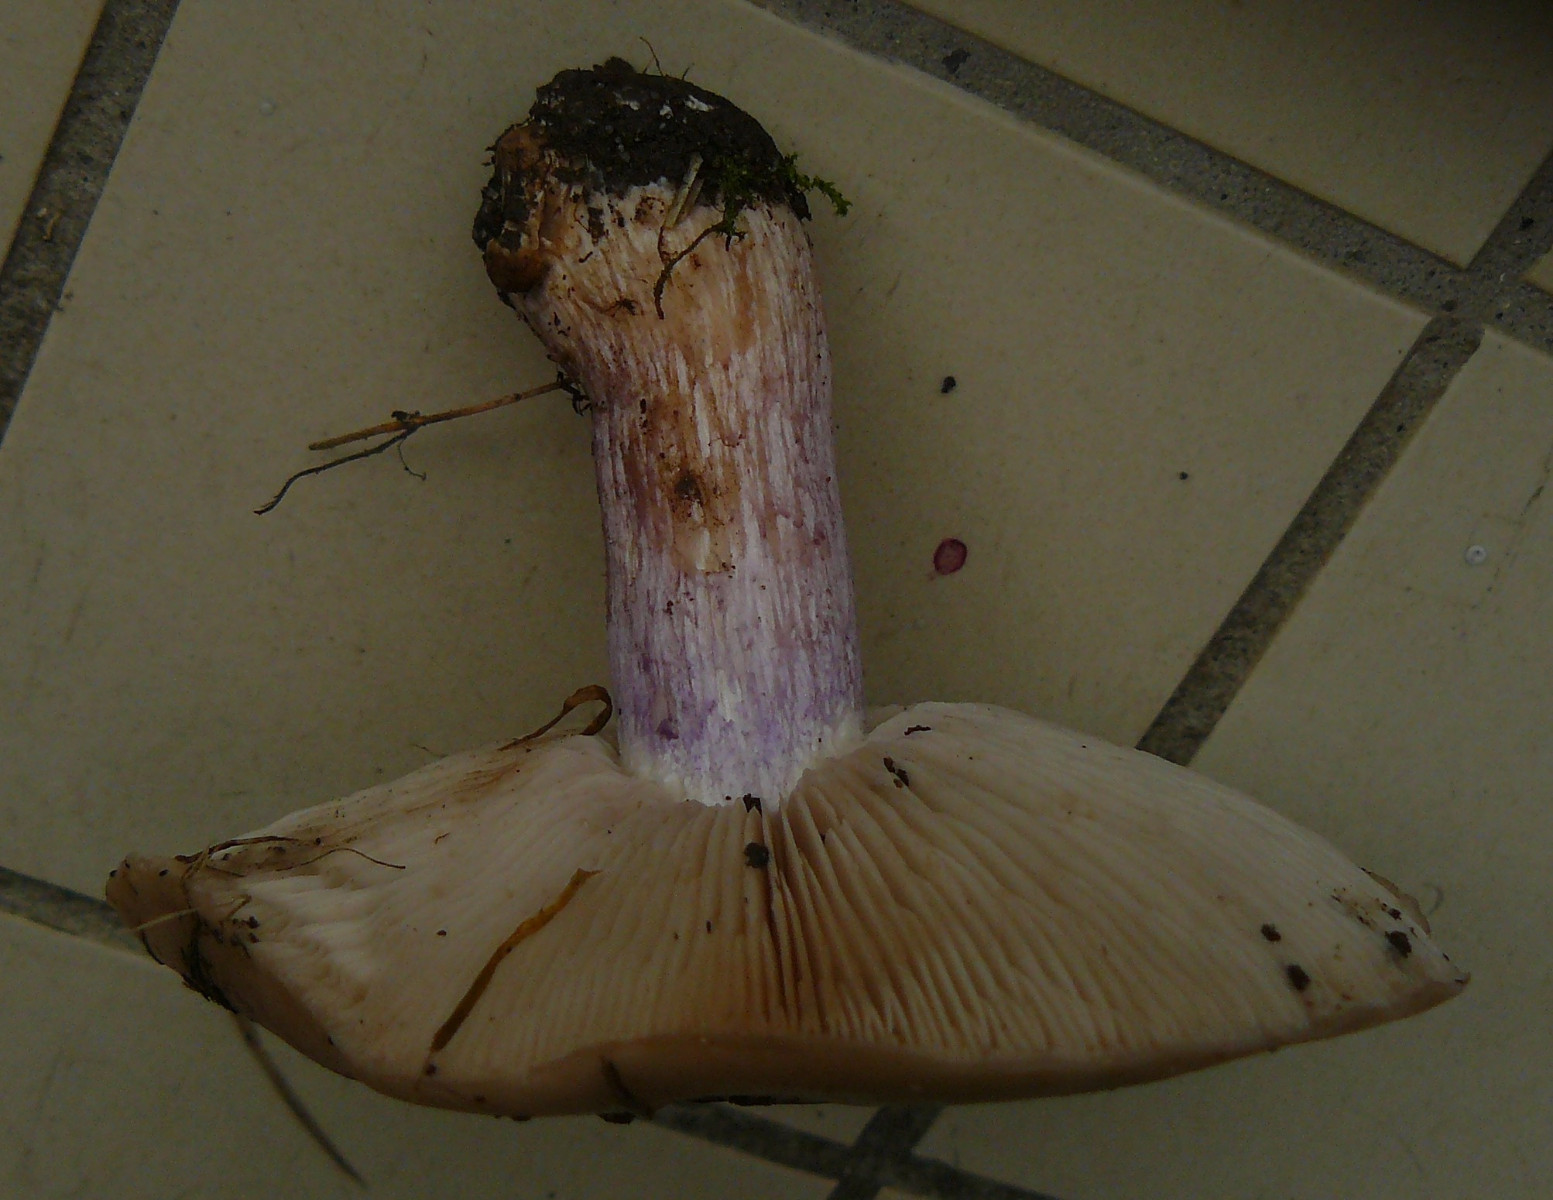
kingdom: Fungi
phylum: Basidiomycota
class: Agaricomycetes
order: Agaricales
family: Tricholomataceae
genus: Lepista
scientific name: Lepista personata
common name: bleg hekseringshat
